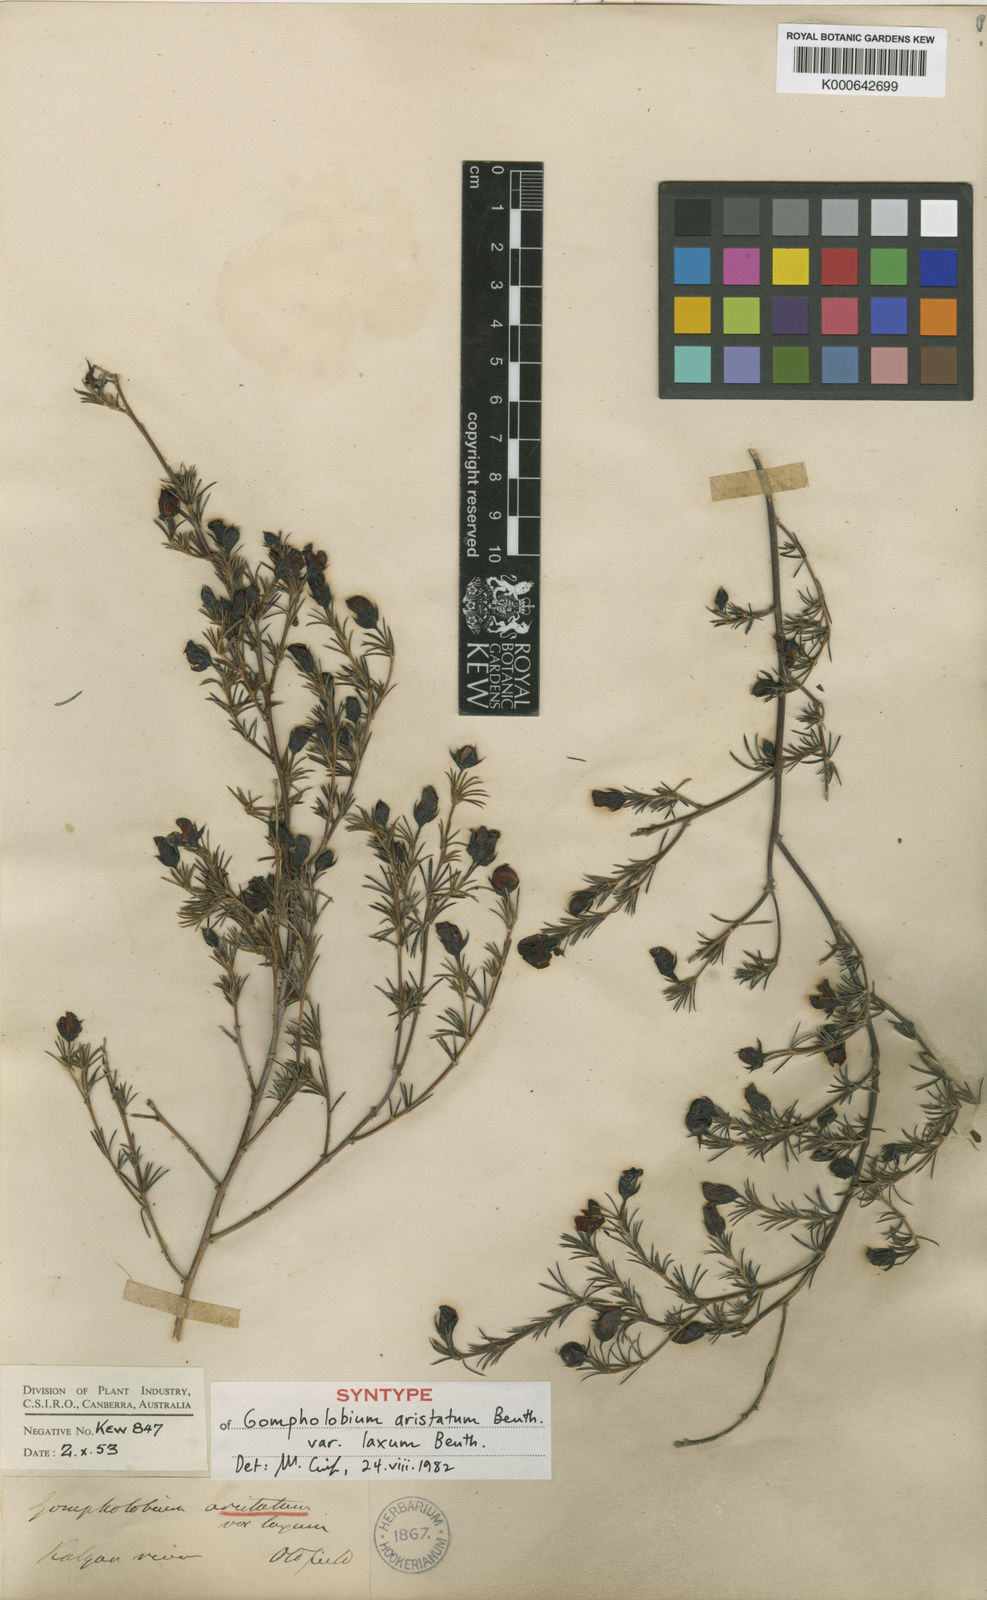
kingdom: Plantae
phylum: Tracheophyta
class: Magnoliopsida
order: Fabales
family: Fabaceae
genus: Gompholobium
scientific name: Gompholobium laxum
